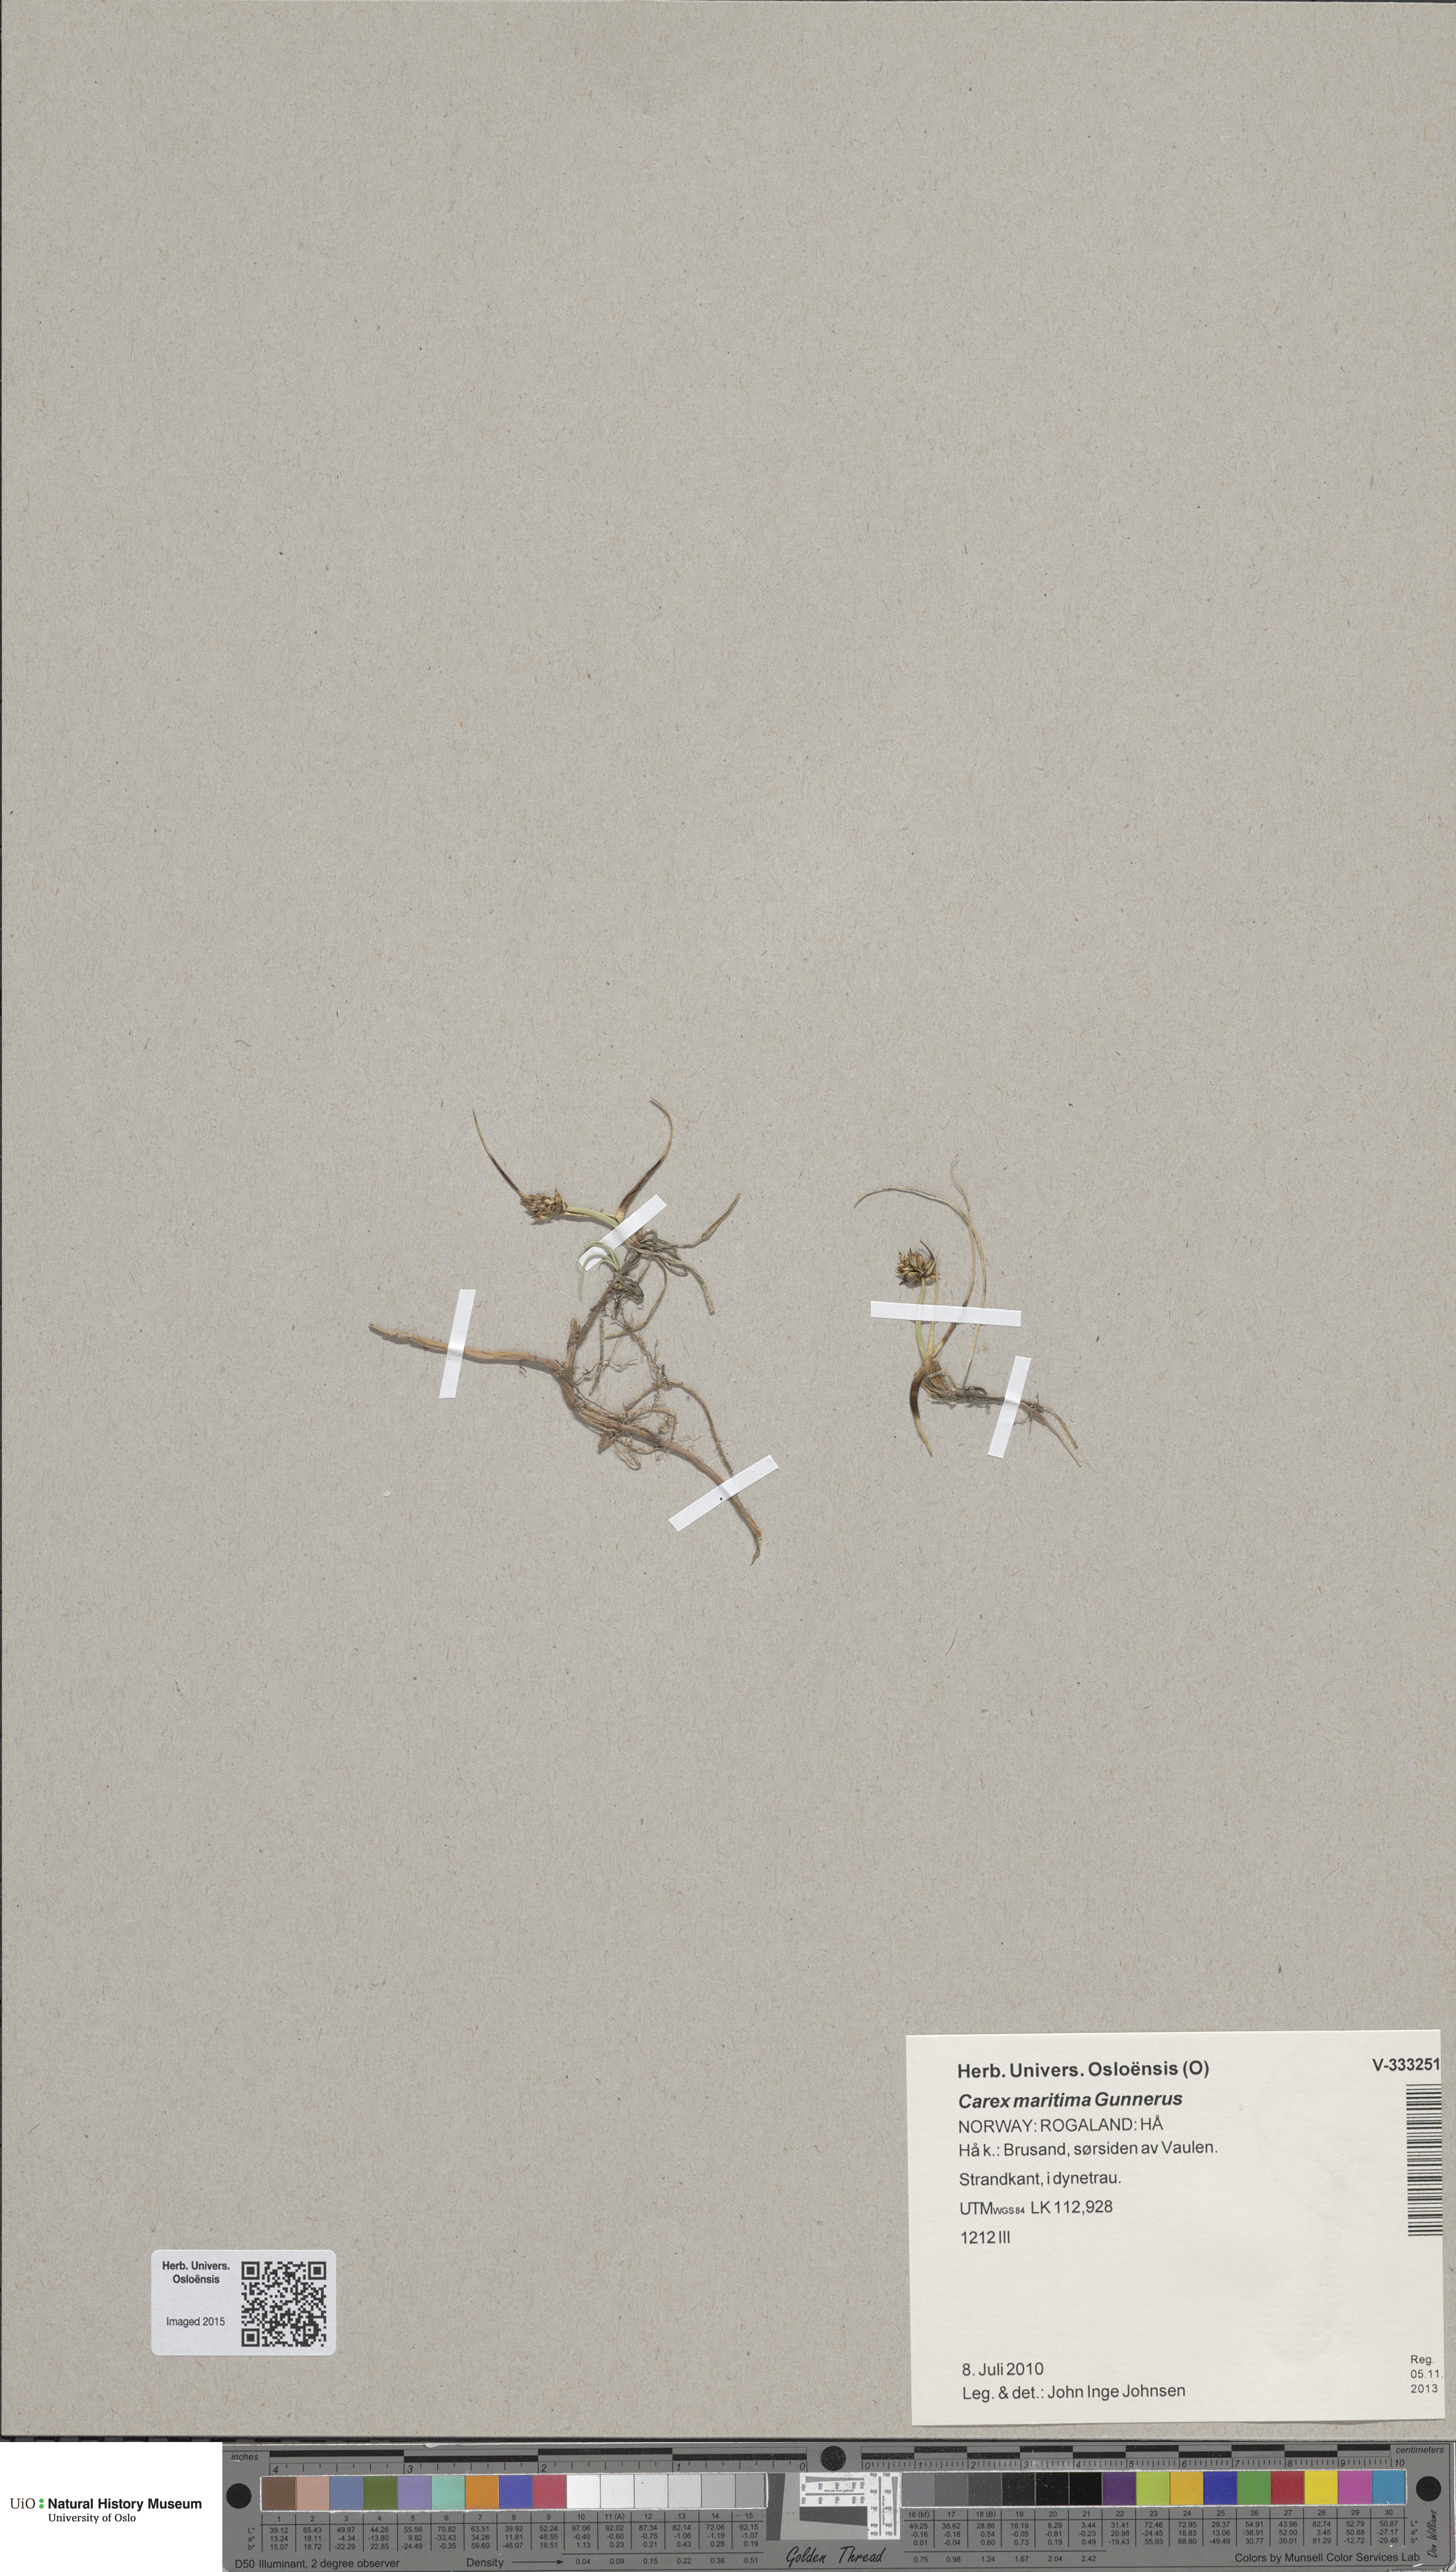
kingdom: Plantae
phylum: Tracheophyta
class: Liliopsida
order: Poales
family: Cyperaceae
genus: Carex
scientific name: Carex maritima
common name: Curved sedge
